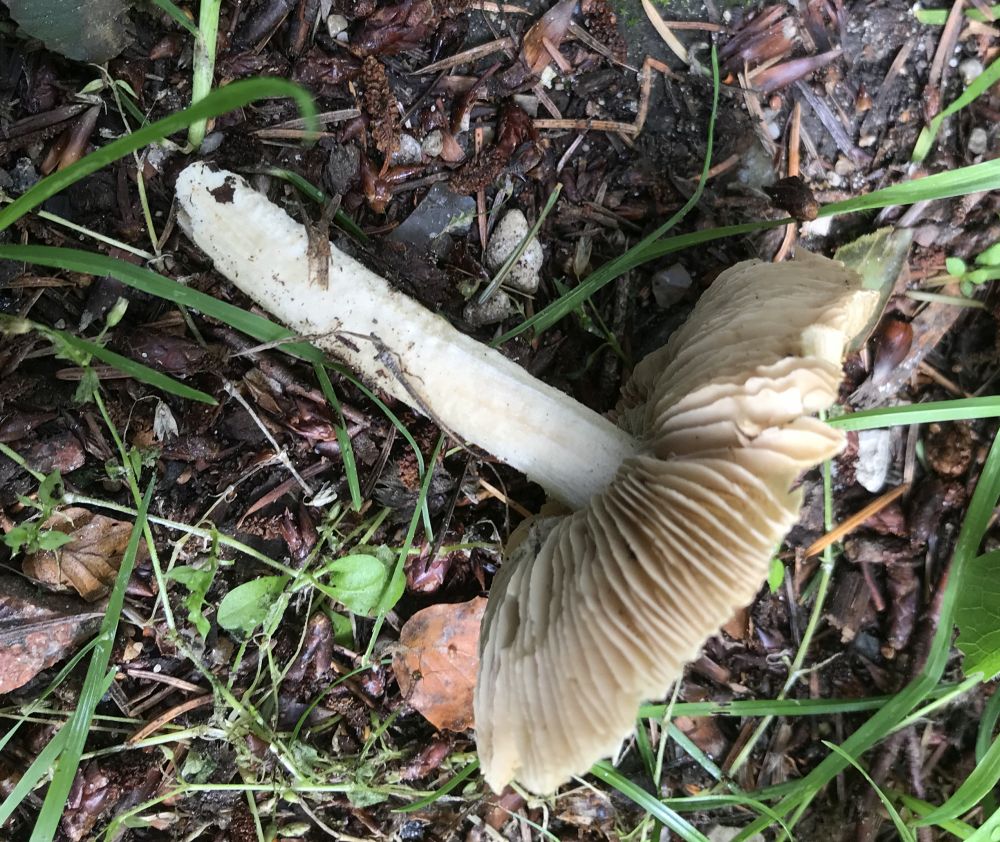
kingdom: Fungi
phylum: Basidiomycota
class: Agaricomycetes
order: Agaricales
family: Inocybaceae
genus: Inocybe
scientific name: Inocybe
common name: trævlhat
